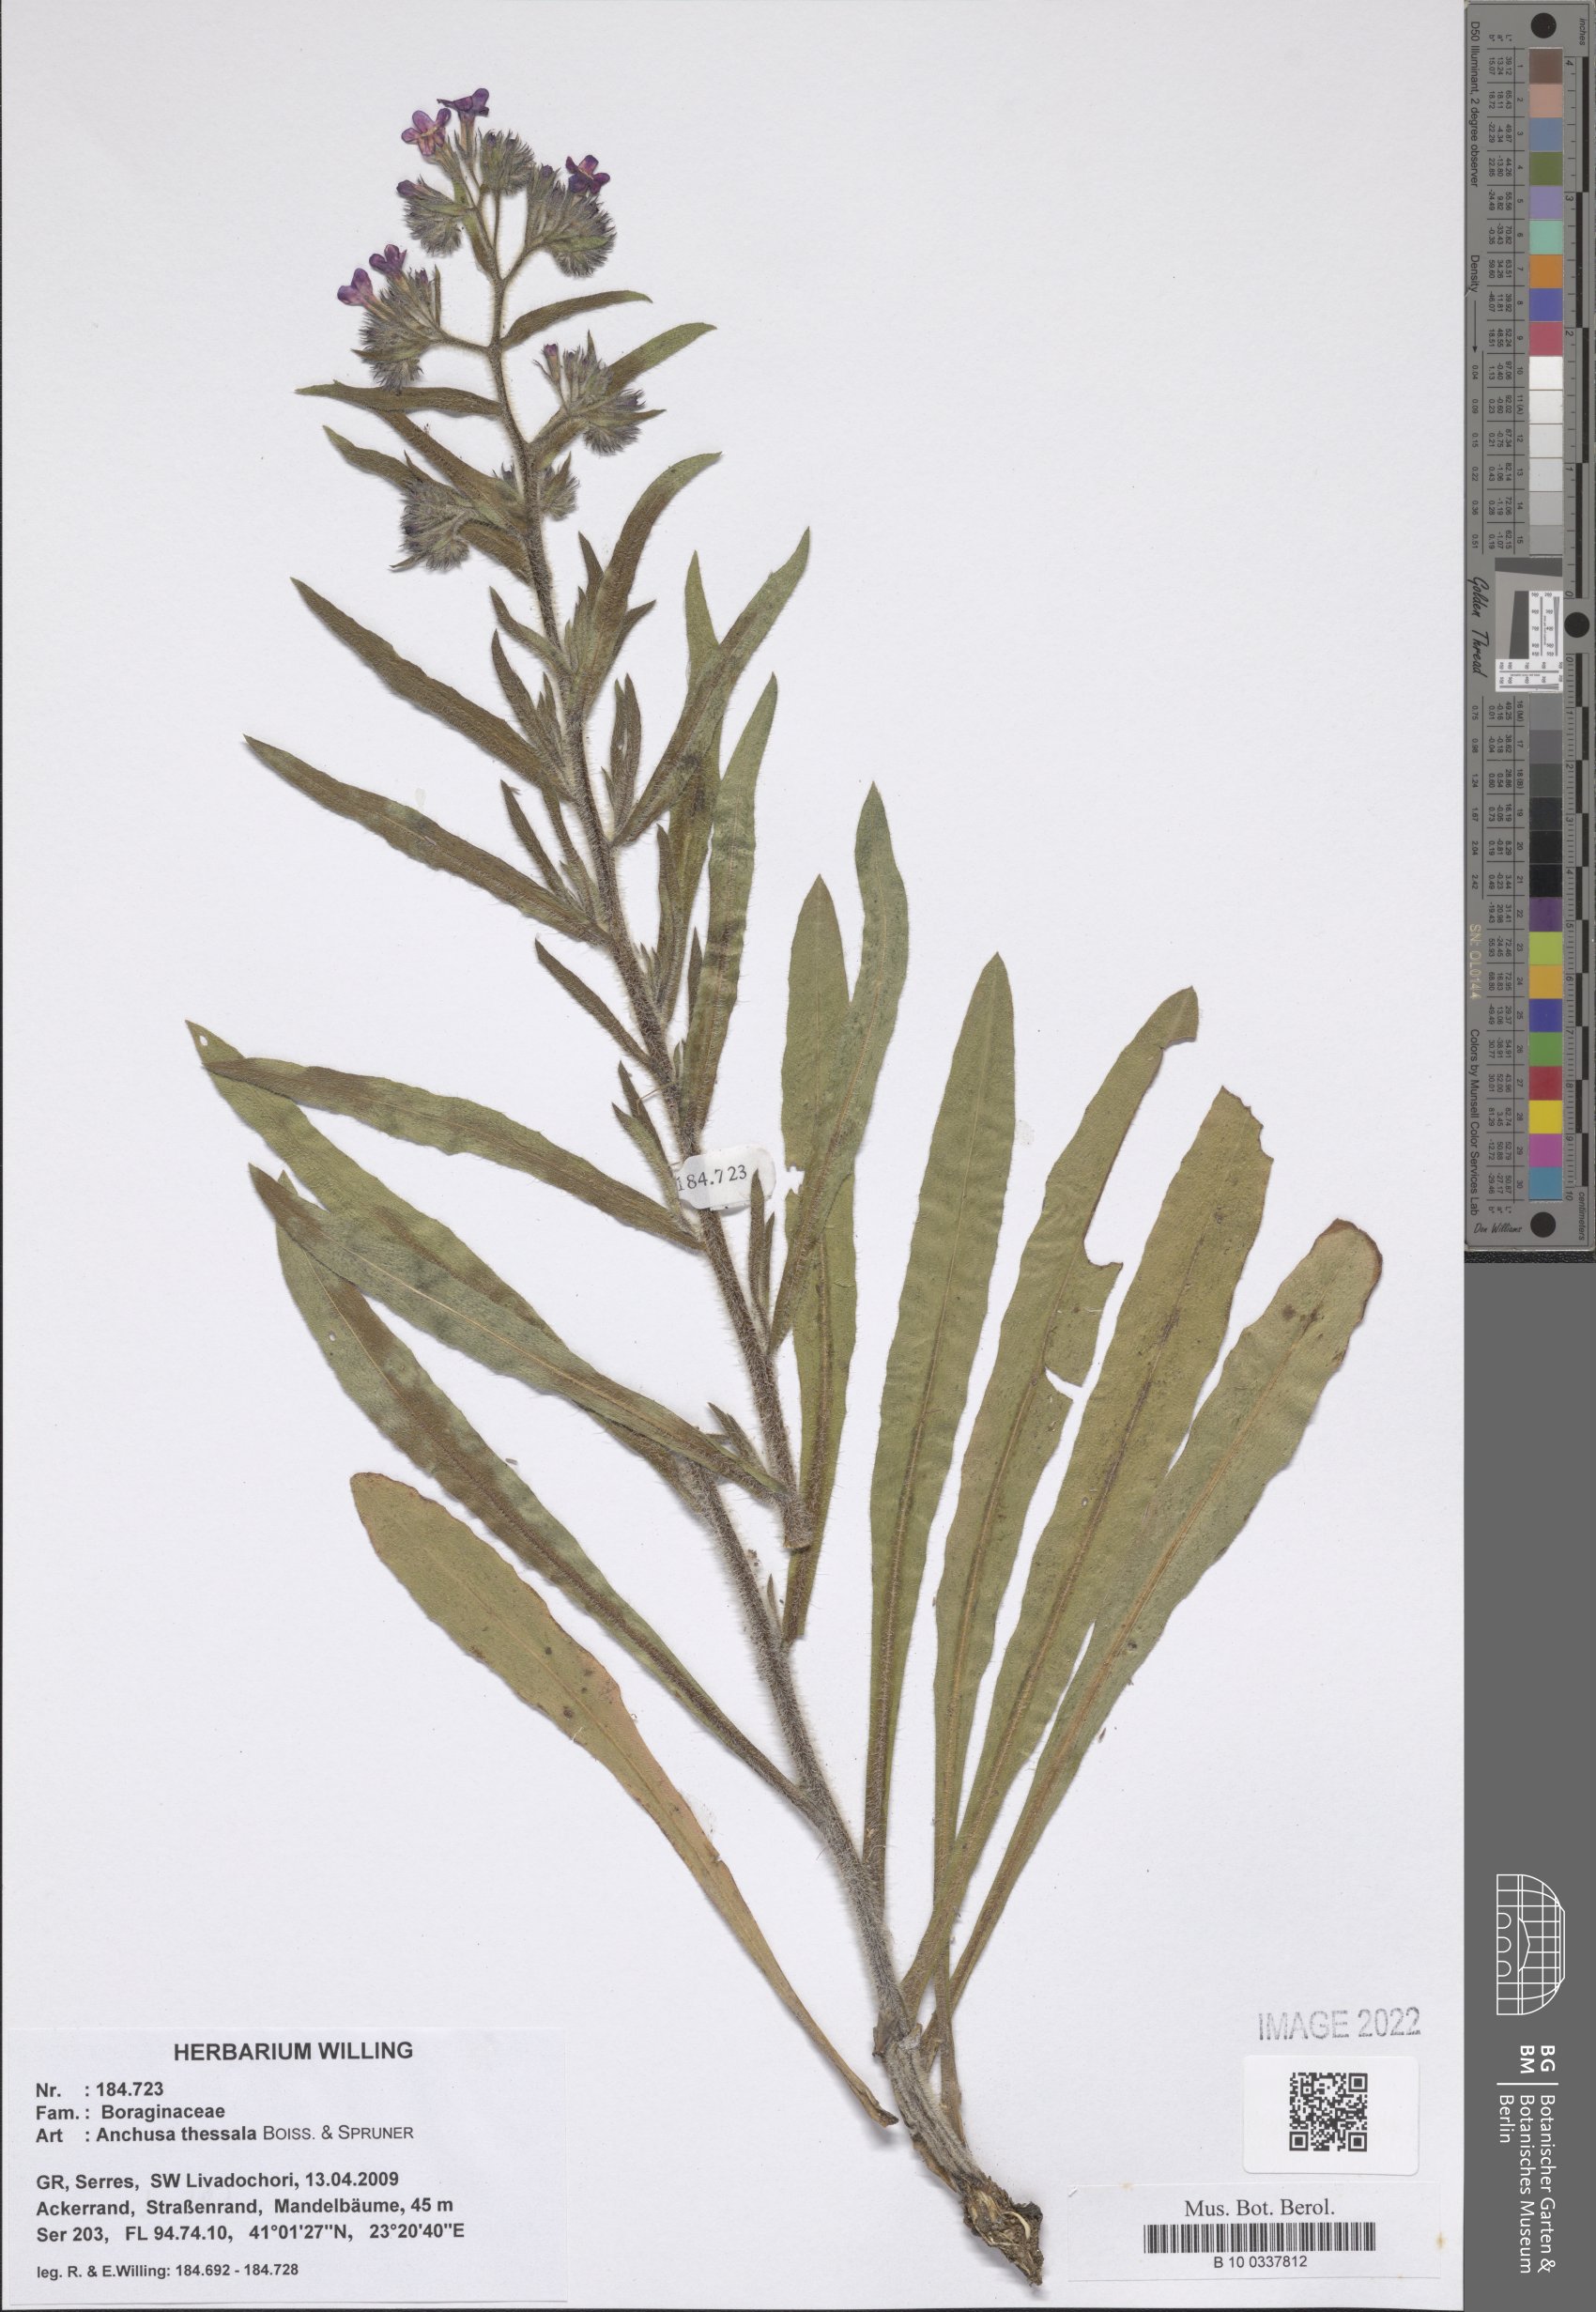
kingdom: Plantae
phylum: Tracheophyta
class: Magnoliopsida
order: Boraginales
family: Boraginaceae
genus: Anchusa
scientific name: Anchusa thessala
